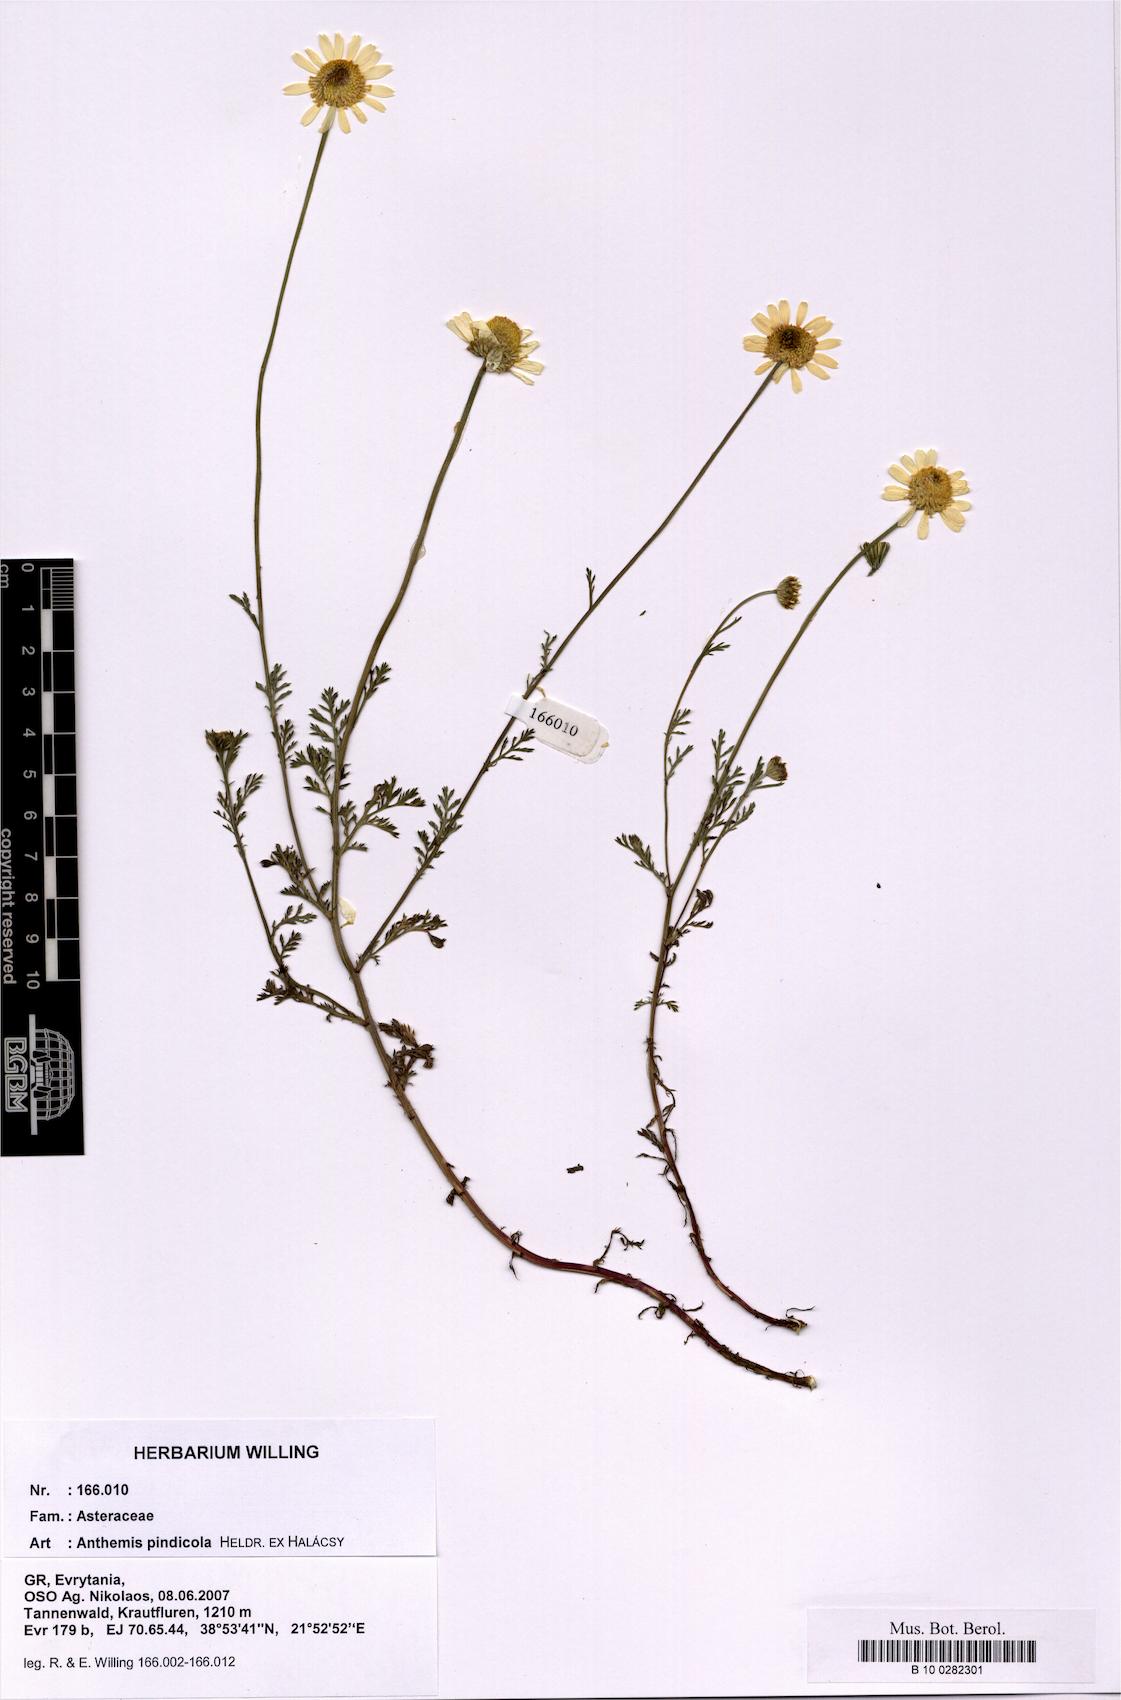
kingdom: Plantae
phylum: Tracheophyta
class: Magnoliopsida
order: Asterales
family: Asteraceae
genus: Anthemis
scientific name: Anthemis pindicola
